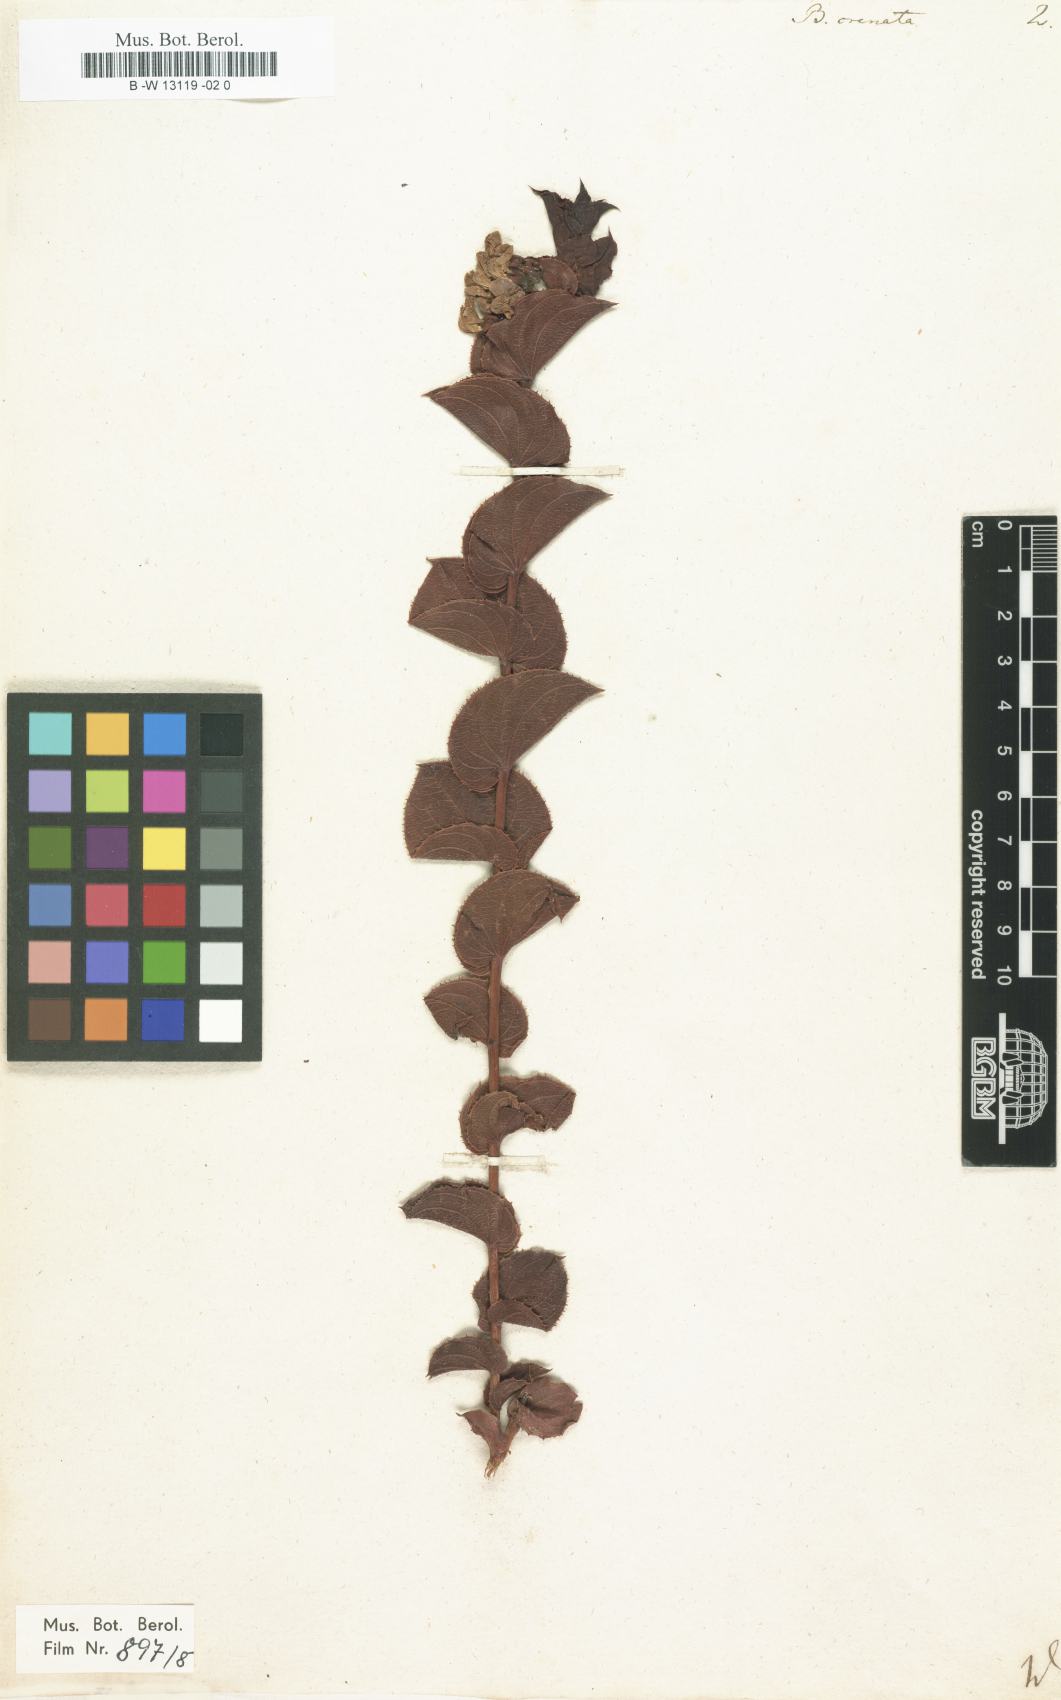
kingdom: Plantae
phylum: Tracheophyta
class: Magnoliopsida
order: Fabales
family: Fabaceae
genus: Aspalathus
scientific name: Aspalathus
